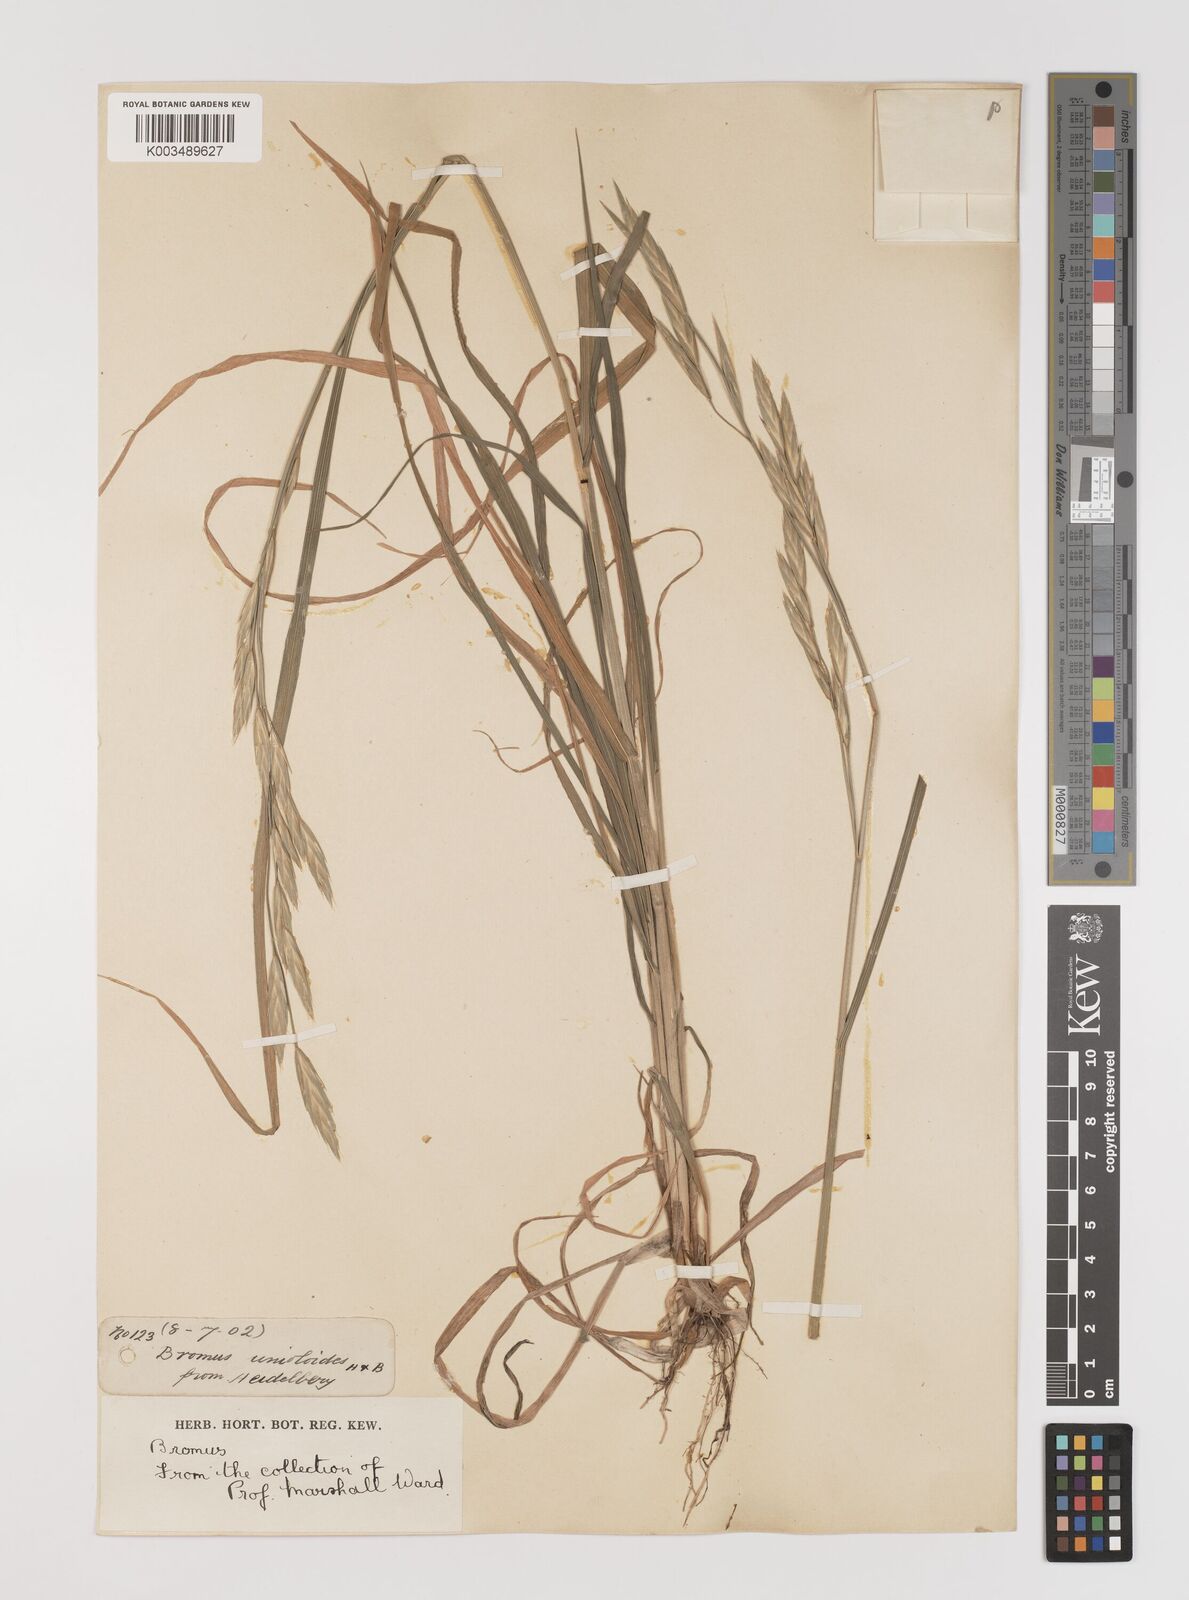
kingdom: Plantae
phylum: Tracheophyta
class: Liliopsida
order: Poales
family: Poaceae
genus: Bromus
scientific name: Bromus catharticus
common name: Rescuegrass
